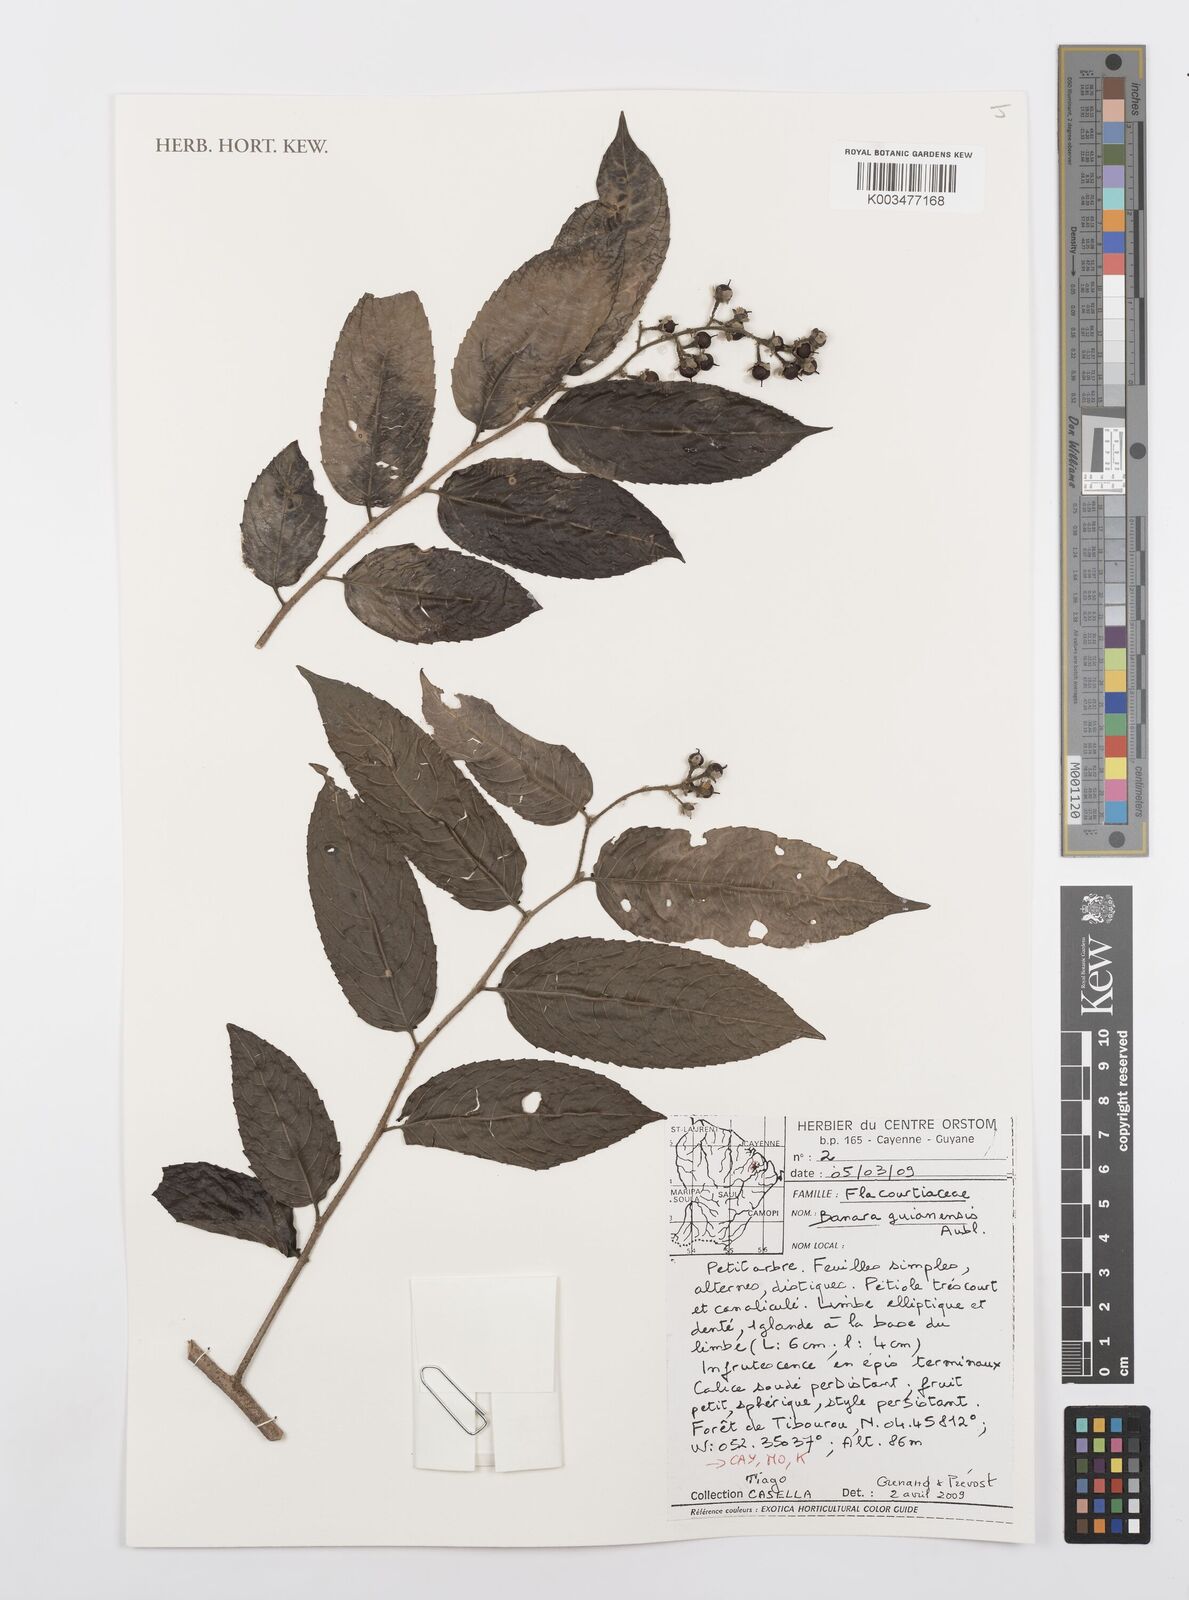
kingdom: Plantae
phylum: Tracheophyta
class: Magnoliopsida
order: Malpighiales
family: Salicaceae
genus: Banara
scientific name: Banara guianensis
